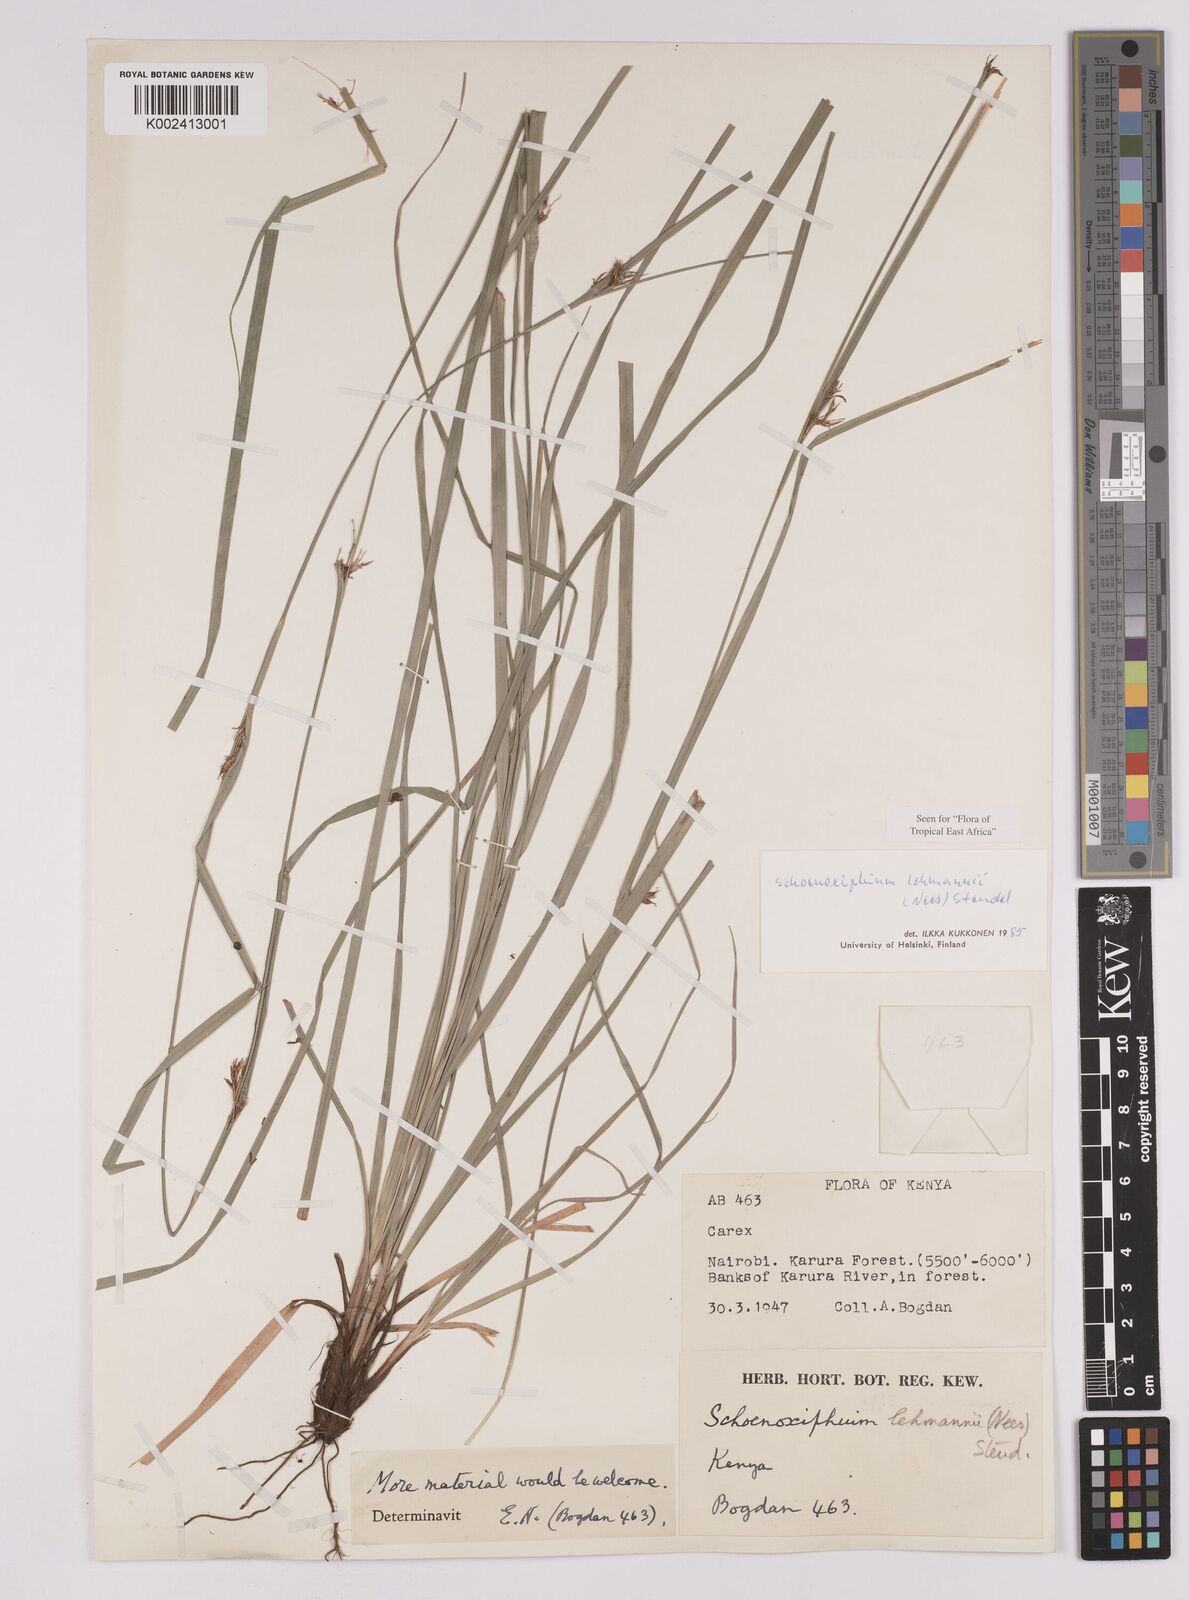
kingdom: Plantae
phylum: Tracheophyta
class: Liliopsida
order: Poales
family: Cyperaceae
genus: Carex
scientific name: Carex uhligii
